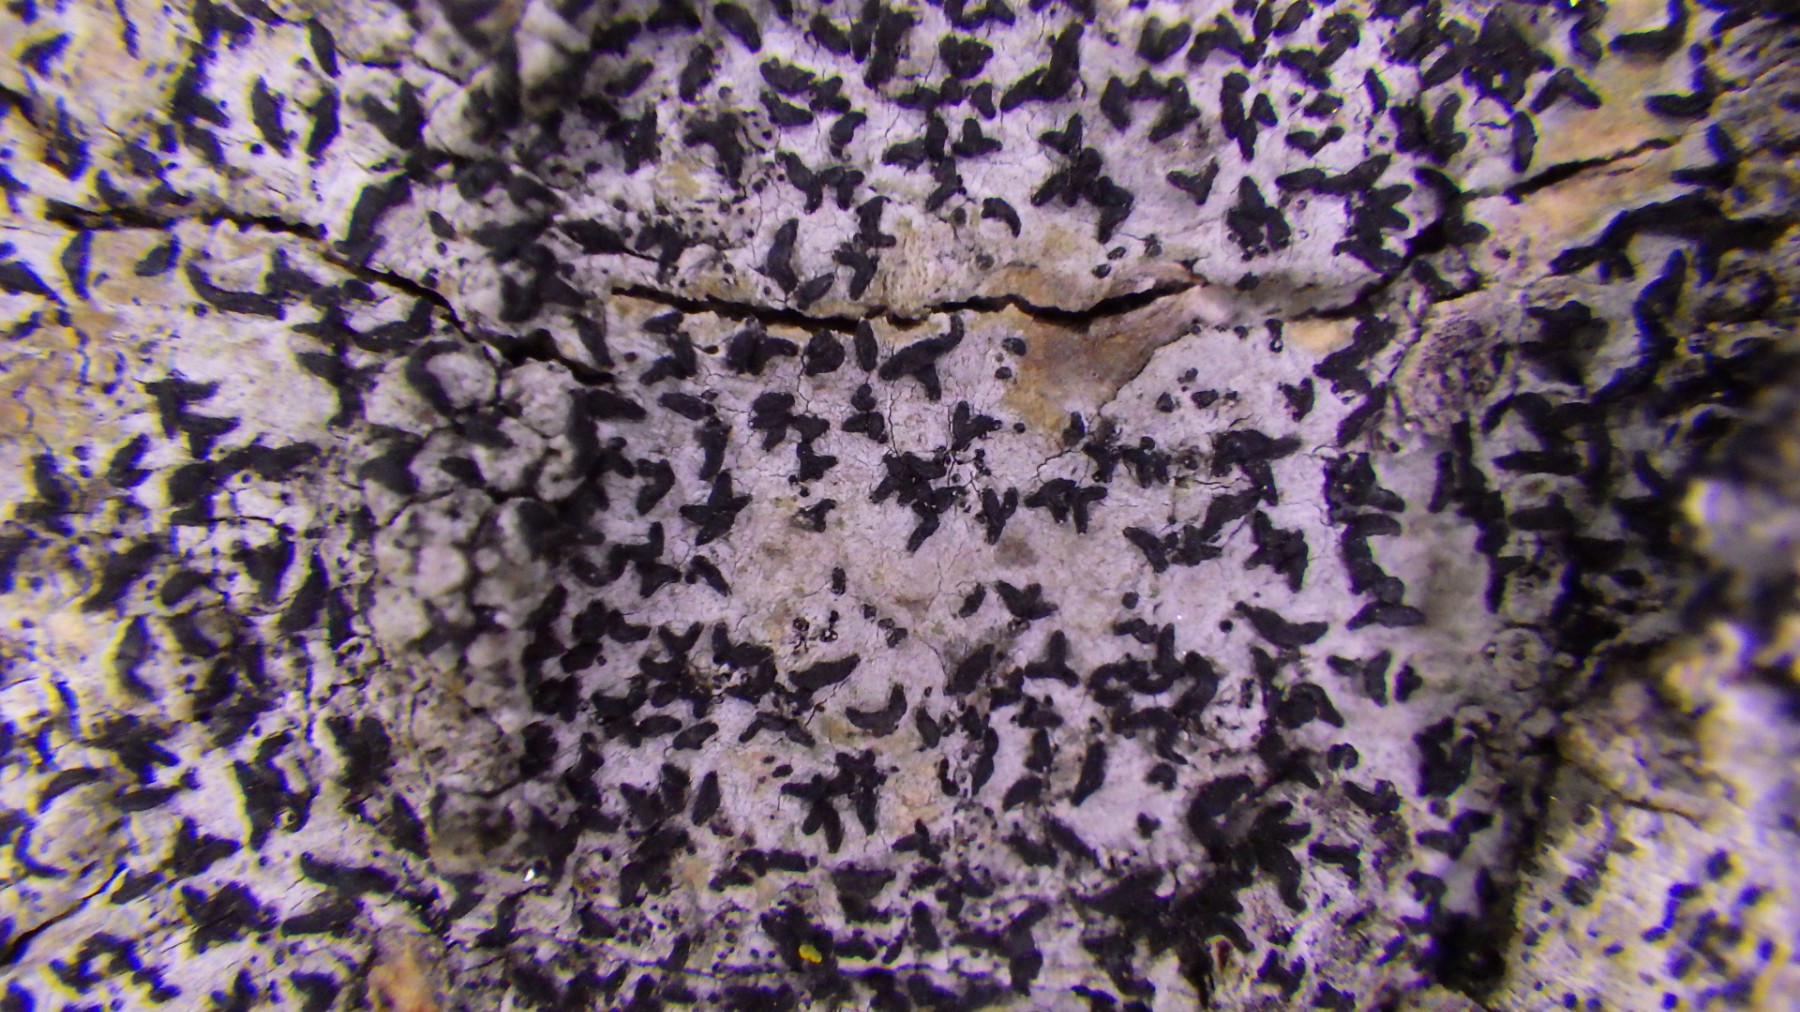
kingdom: Fungi
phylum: Ascomycota
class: Arthoniomycetes
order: Arthoniales
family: Opegraphaceae
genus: Opegrapha
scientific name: Opegrapha niveoatra
